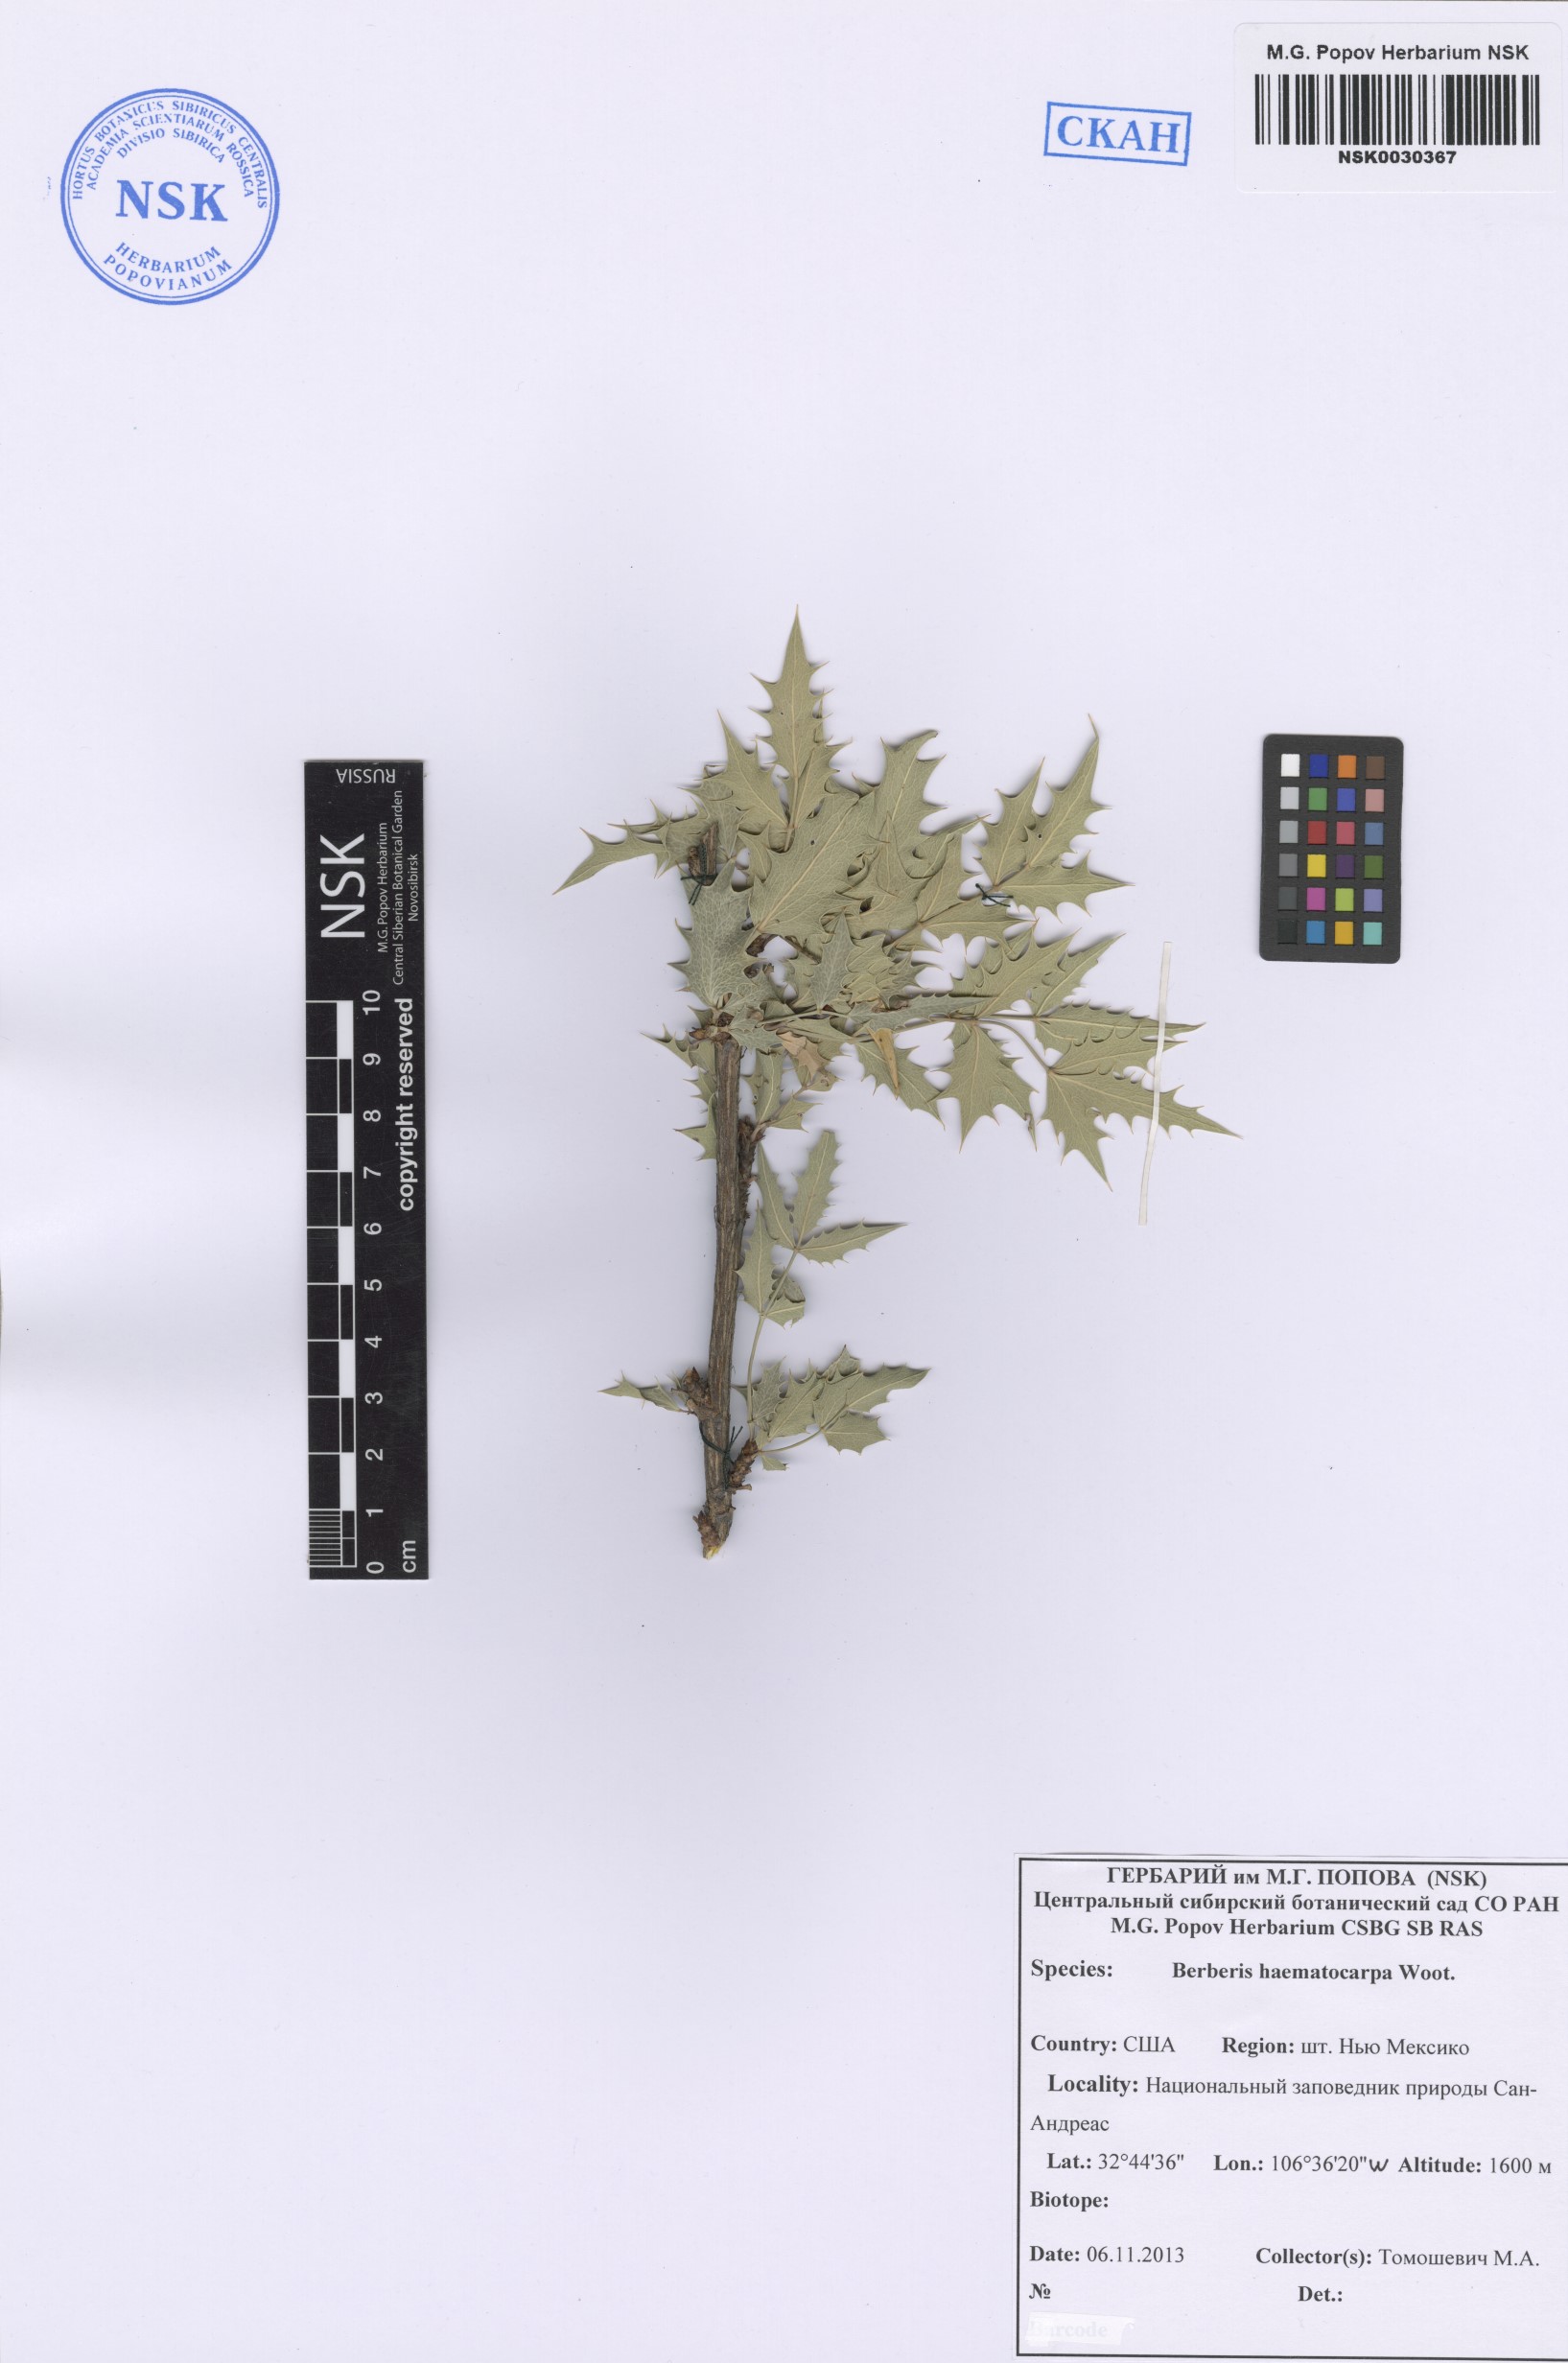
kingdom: Plantae
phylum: Tracheophyta
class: Magnoliopsida
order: Ranunculales
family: Berberidaceae
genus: Alloberberis
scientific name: Alloberberis haematocarpa
